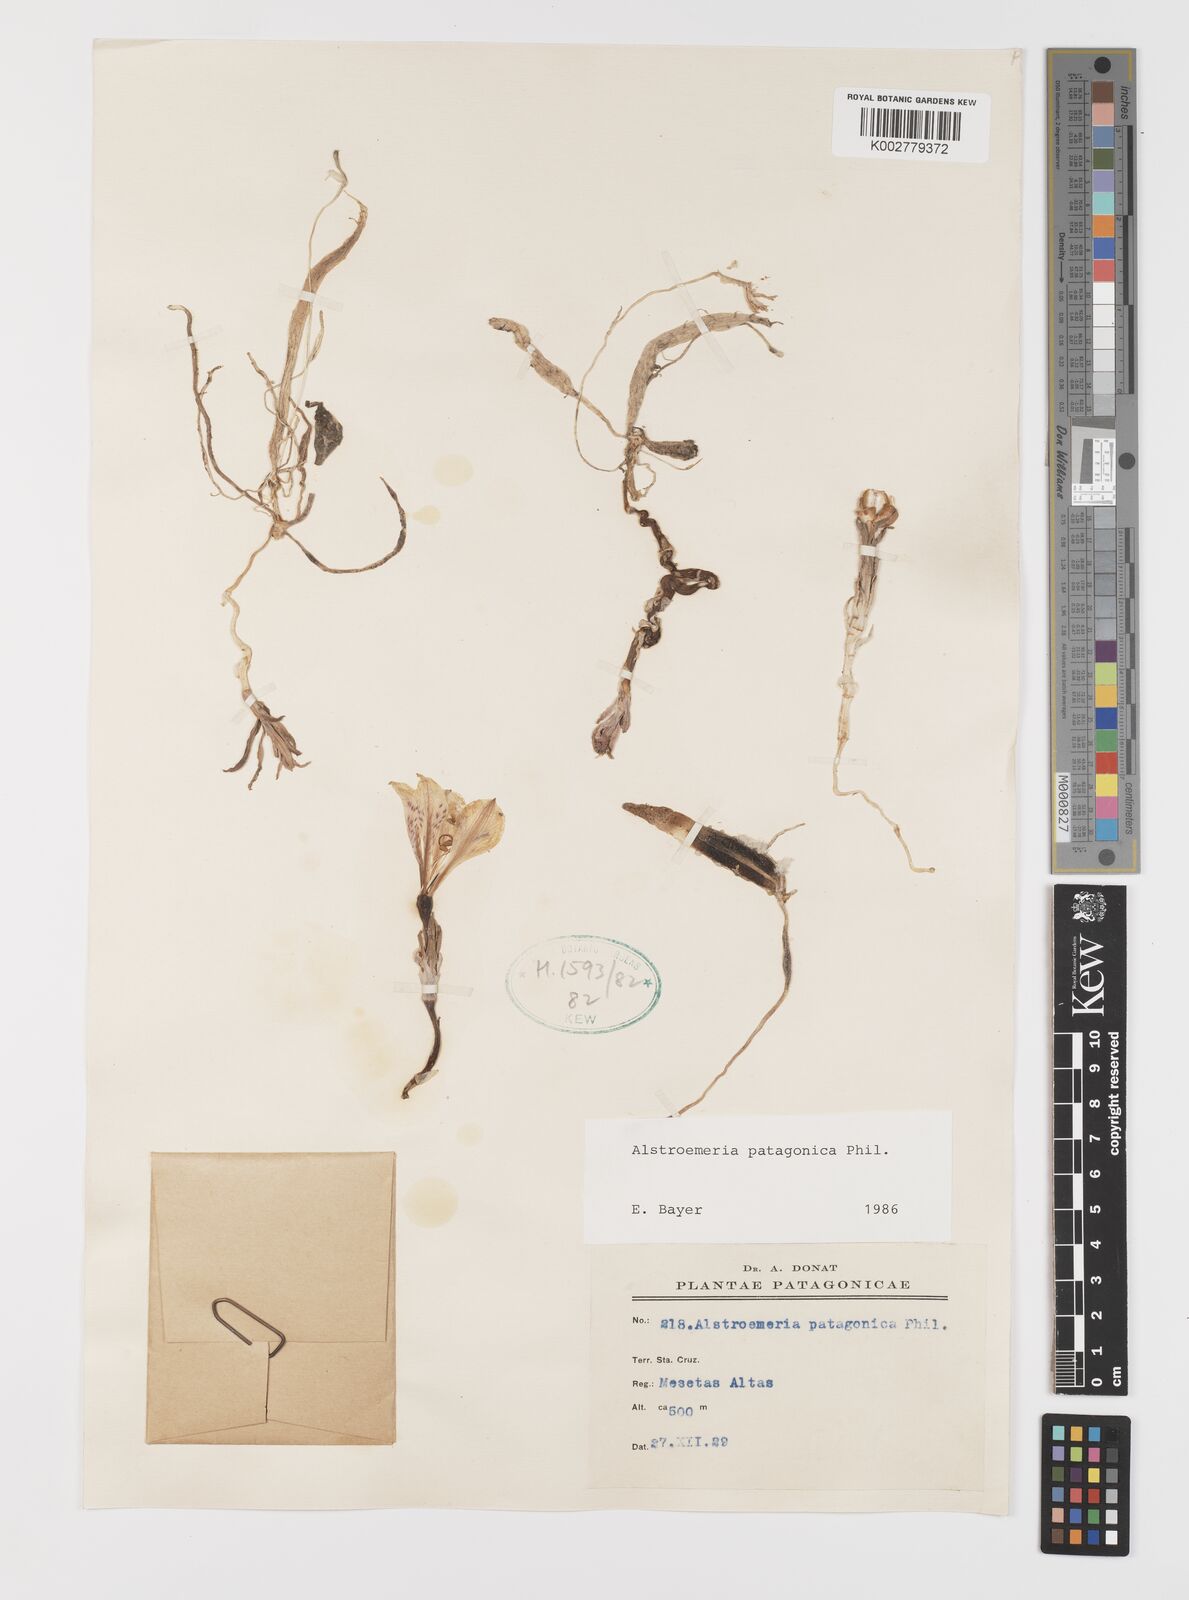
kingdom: Plantae
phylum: Tracheophyta
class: Liliopsida
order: Liliales
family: Alstroemeriaceae
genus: Alstroemeria
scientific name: Alstroemeria patagonica
